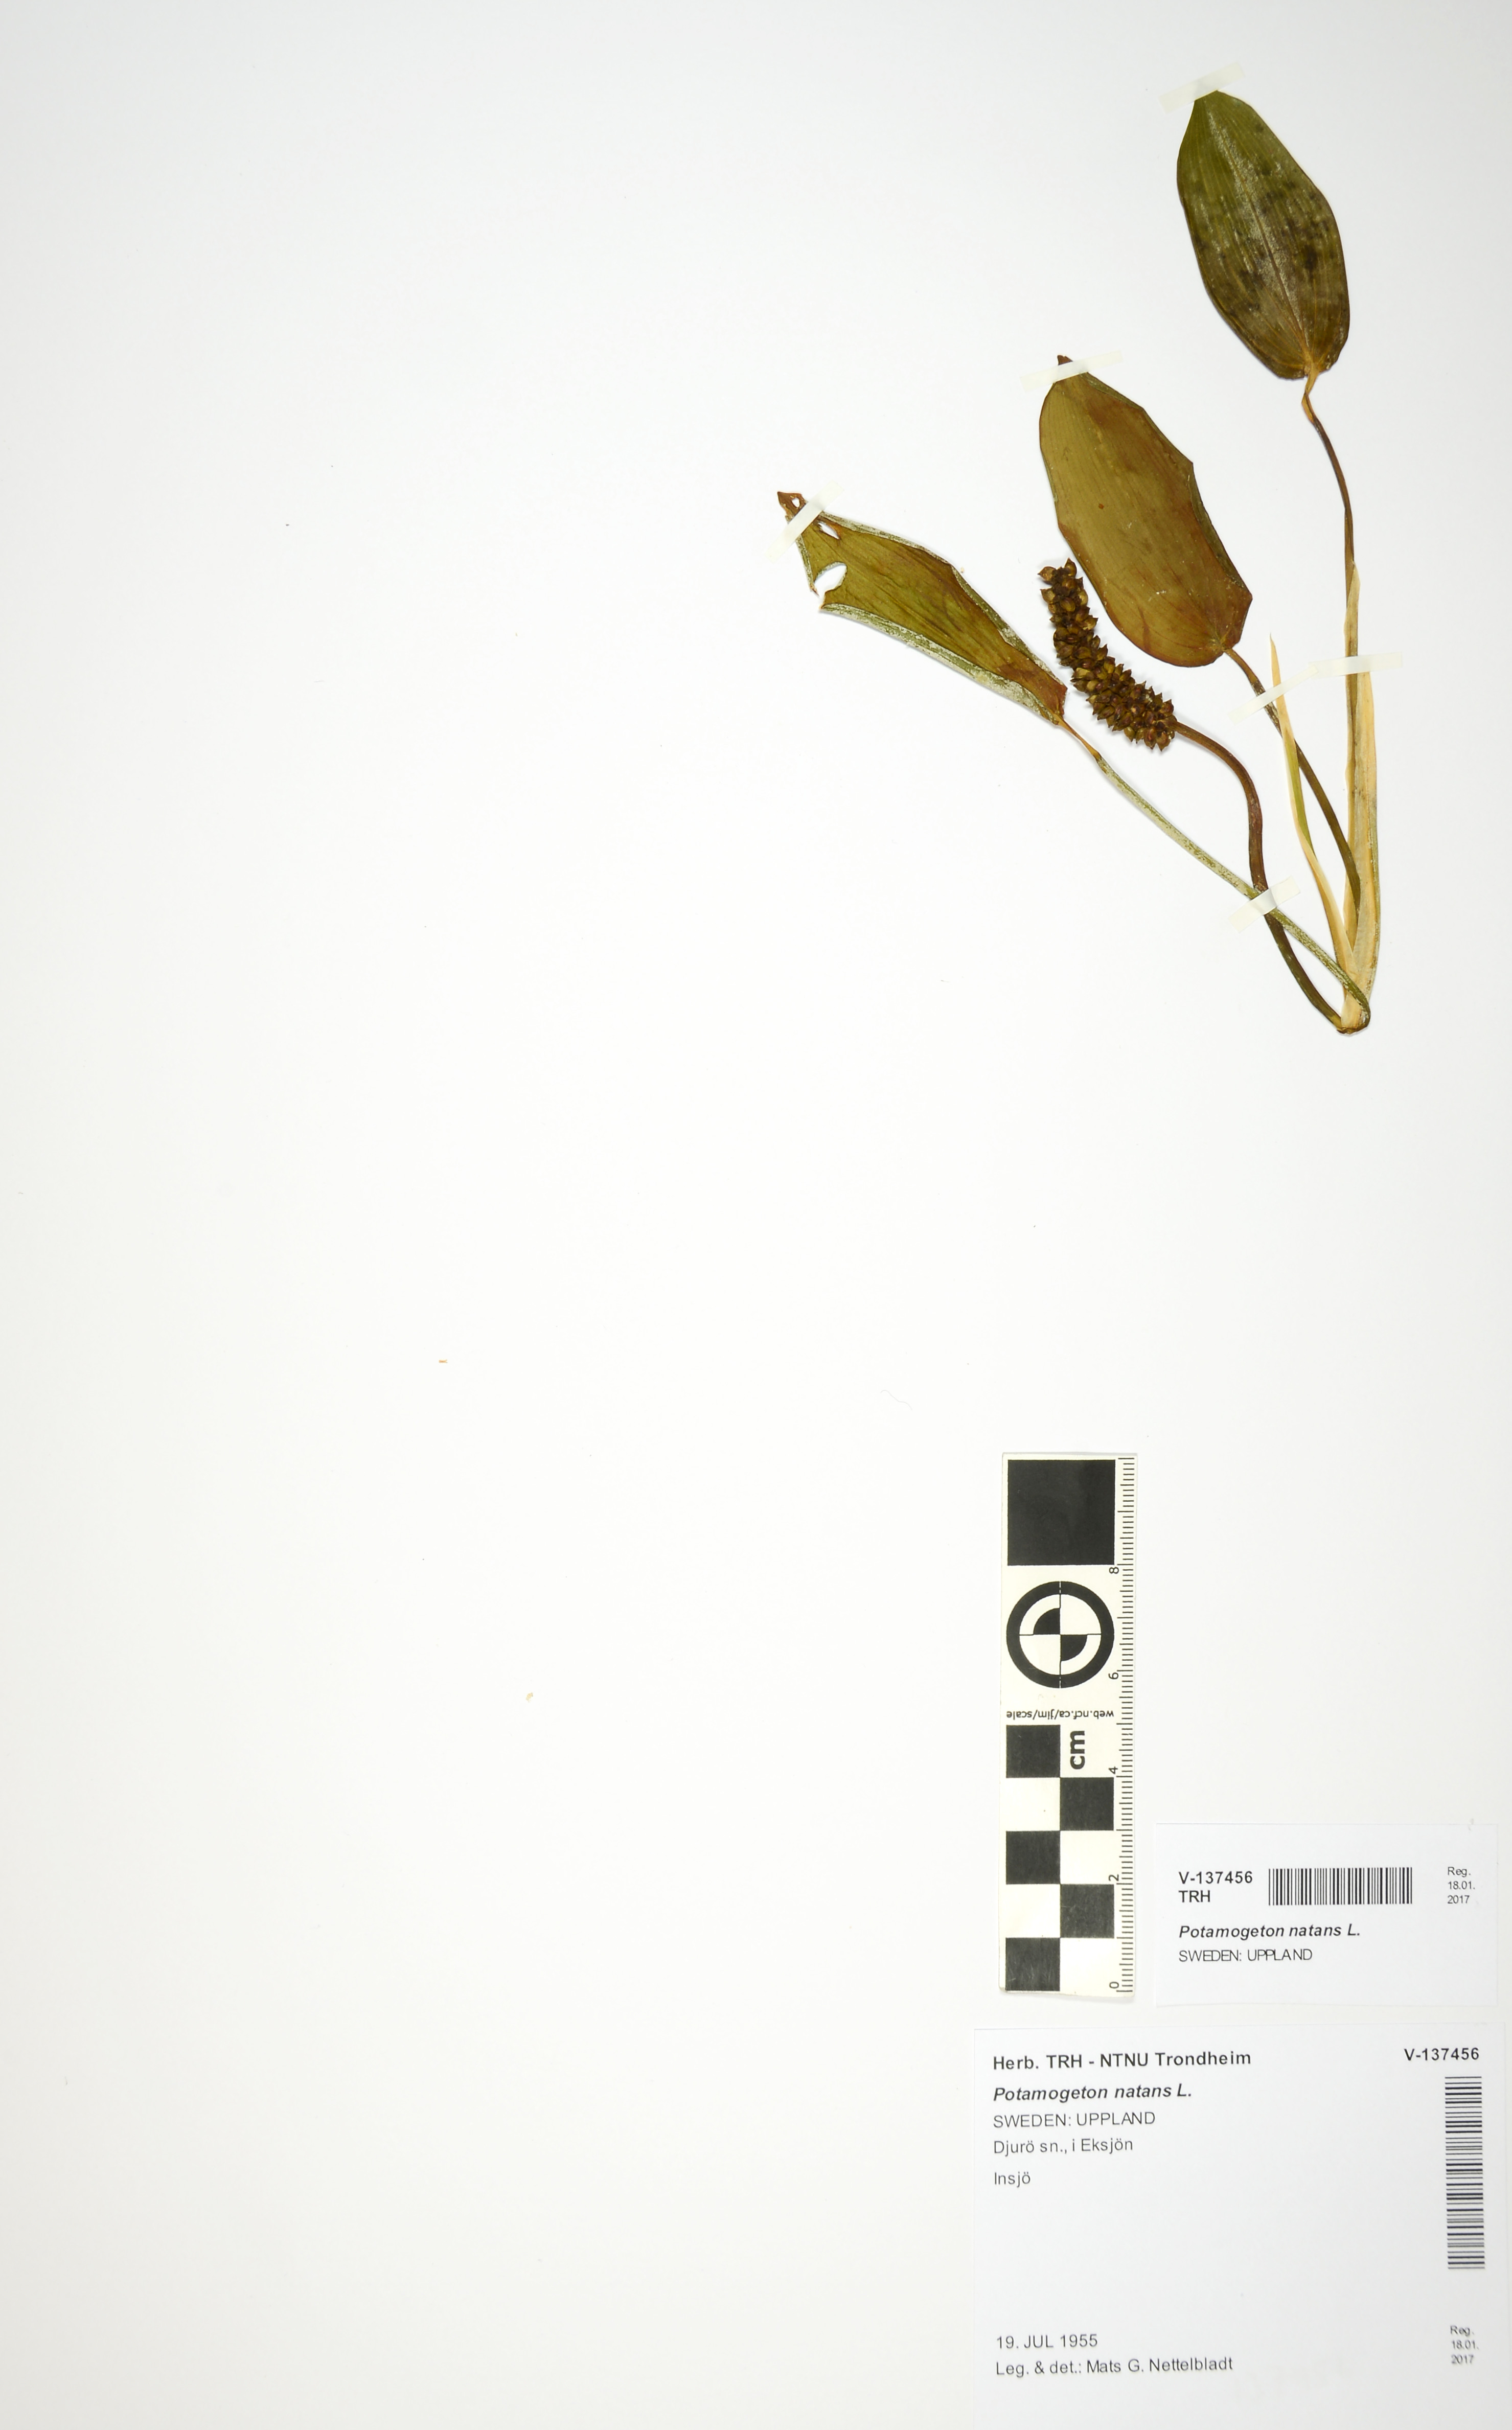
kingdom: Plantae
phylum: Tracheophyta
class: Liliopsida
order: Alismatales
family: Potamogetonaceae
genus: Potamogeton
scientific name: Potamogeton natans
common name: Broad-leaved pondweed
